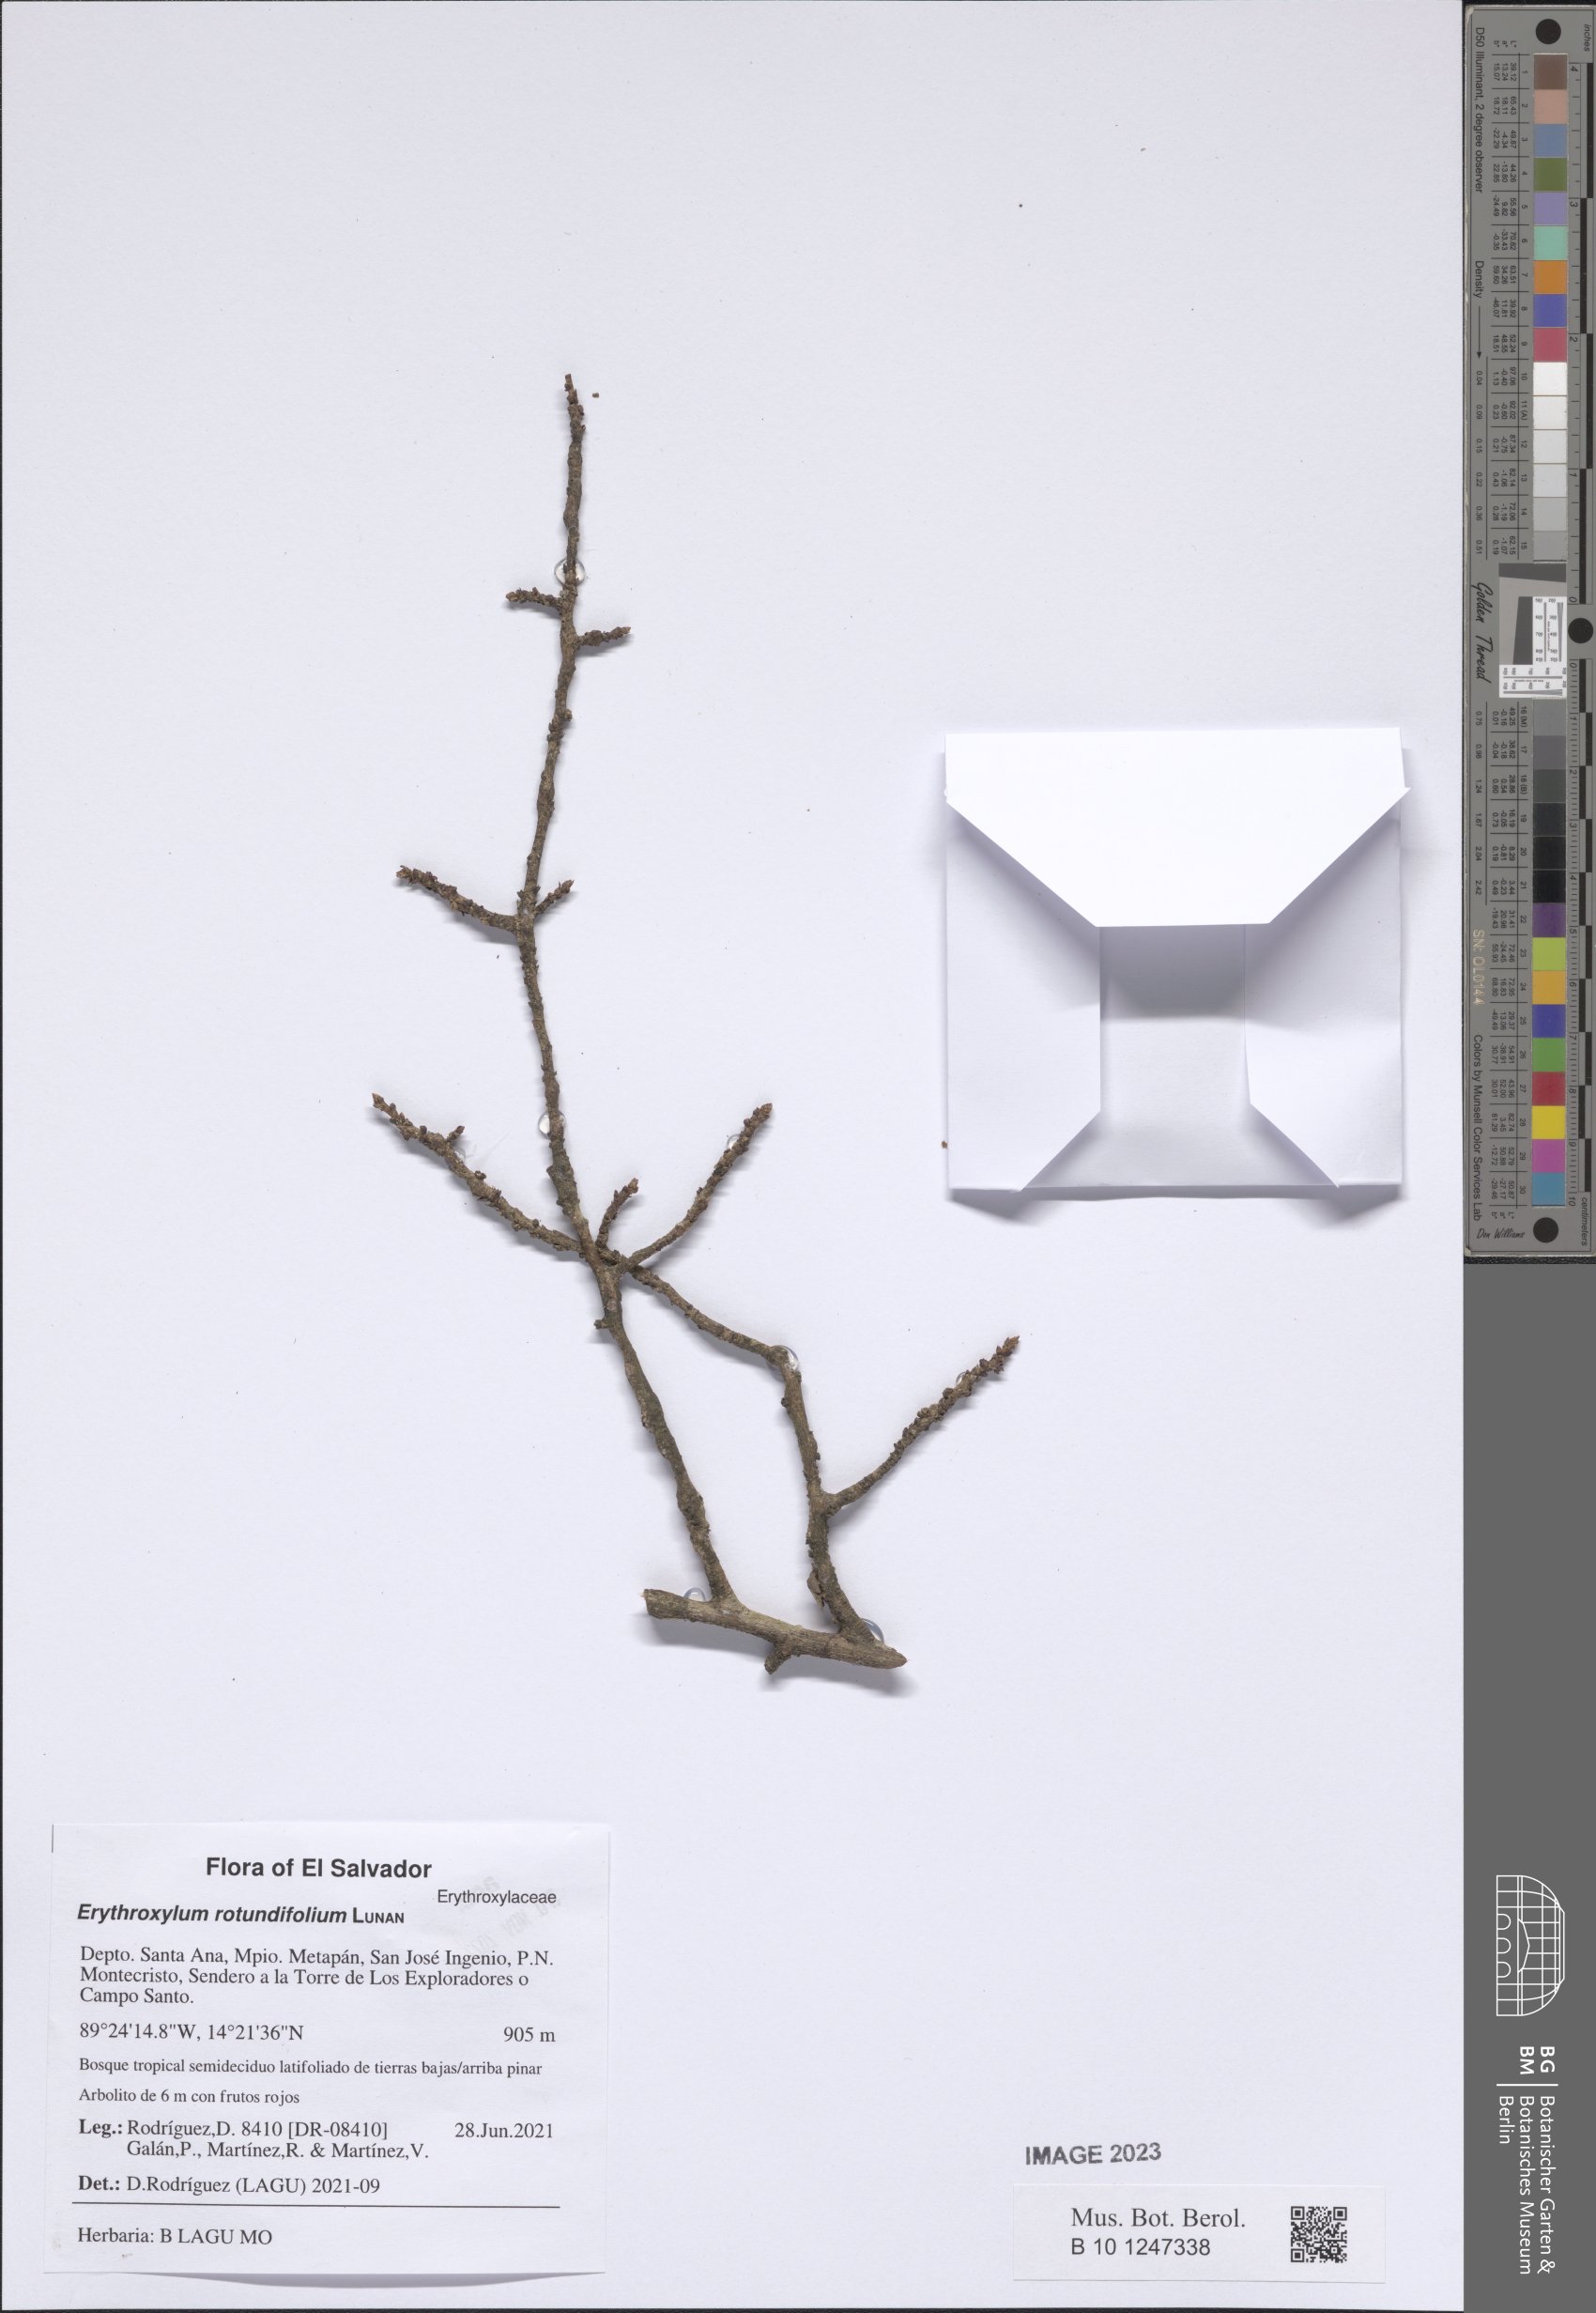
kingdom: Plantae
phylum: Tracheophyta
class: Magnoliopsida
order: Malpighiales
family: Erythroxylaceae
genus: Erythroxylum
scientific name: Erythroxylum rotundifolium
